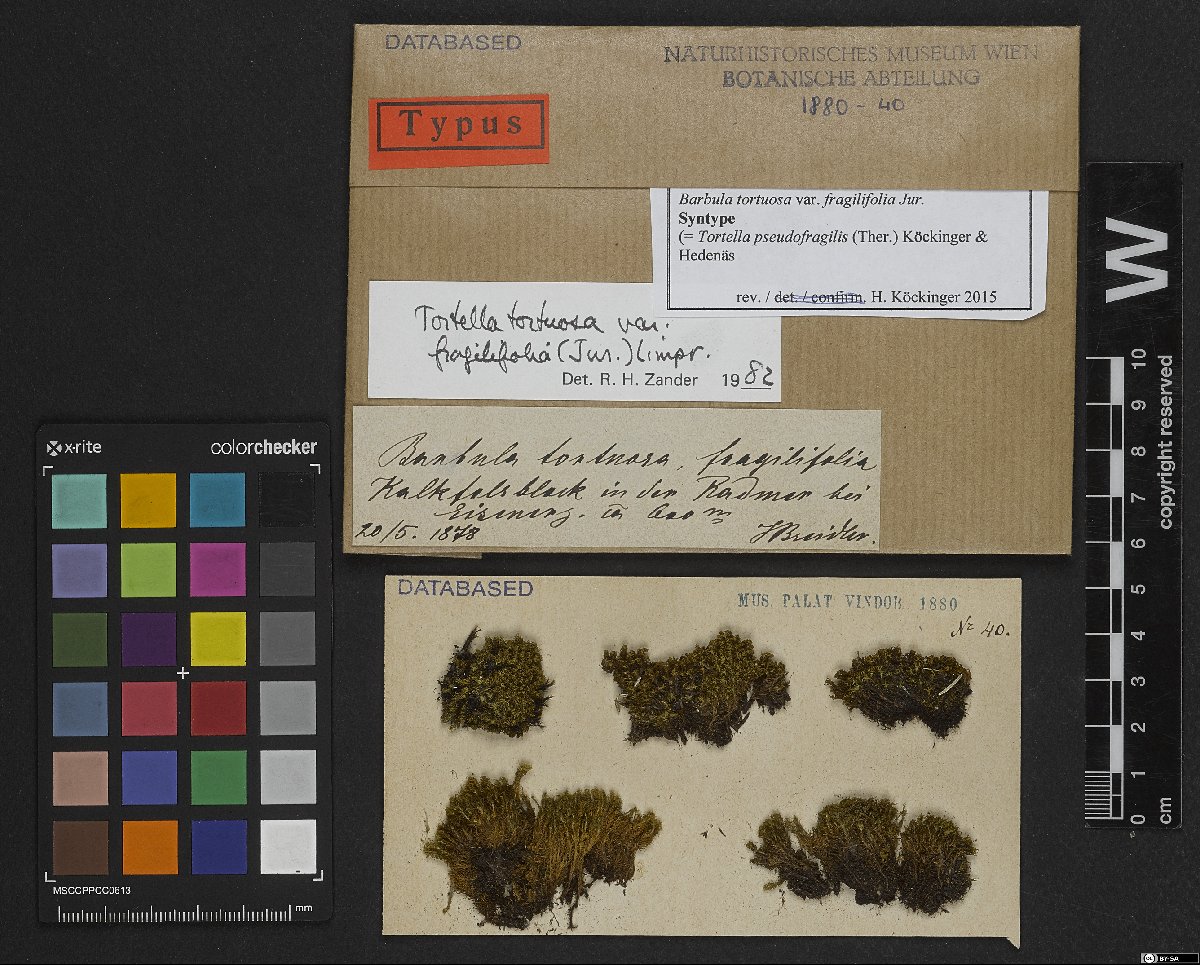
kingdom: Plantae
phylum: Bryophyta
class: Bryopsida
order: Pottiales
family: Pottiaceae
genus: Tortella
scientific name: Tortella nitida
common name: Neat crisp-moss
